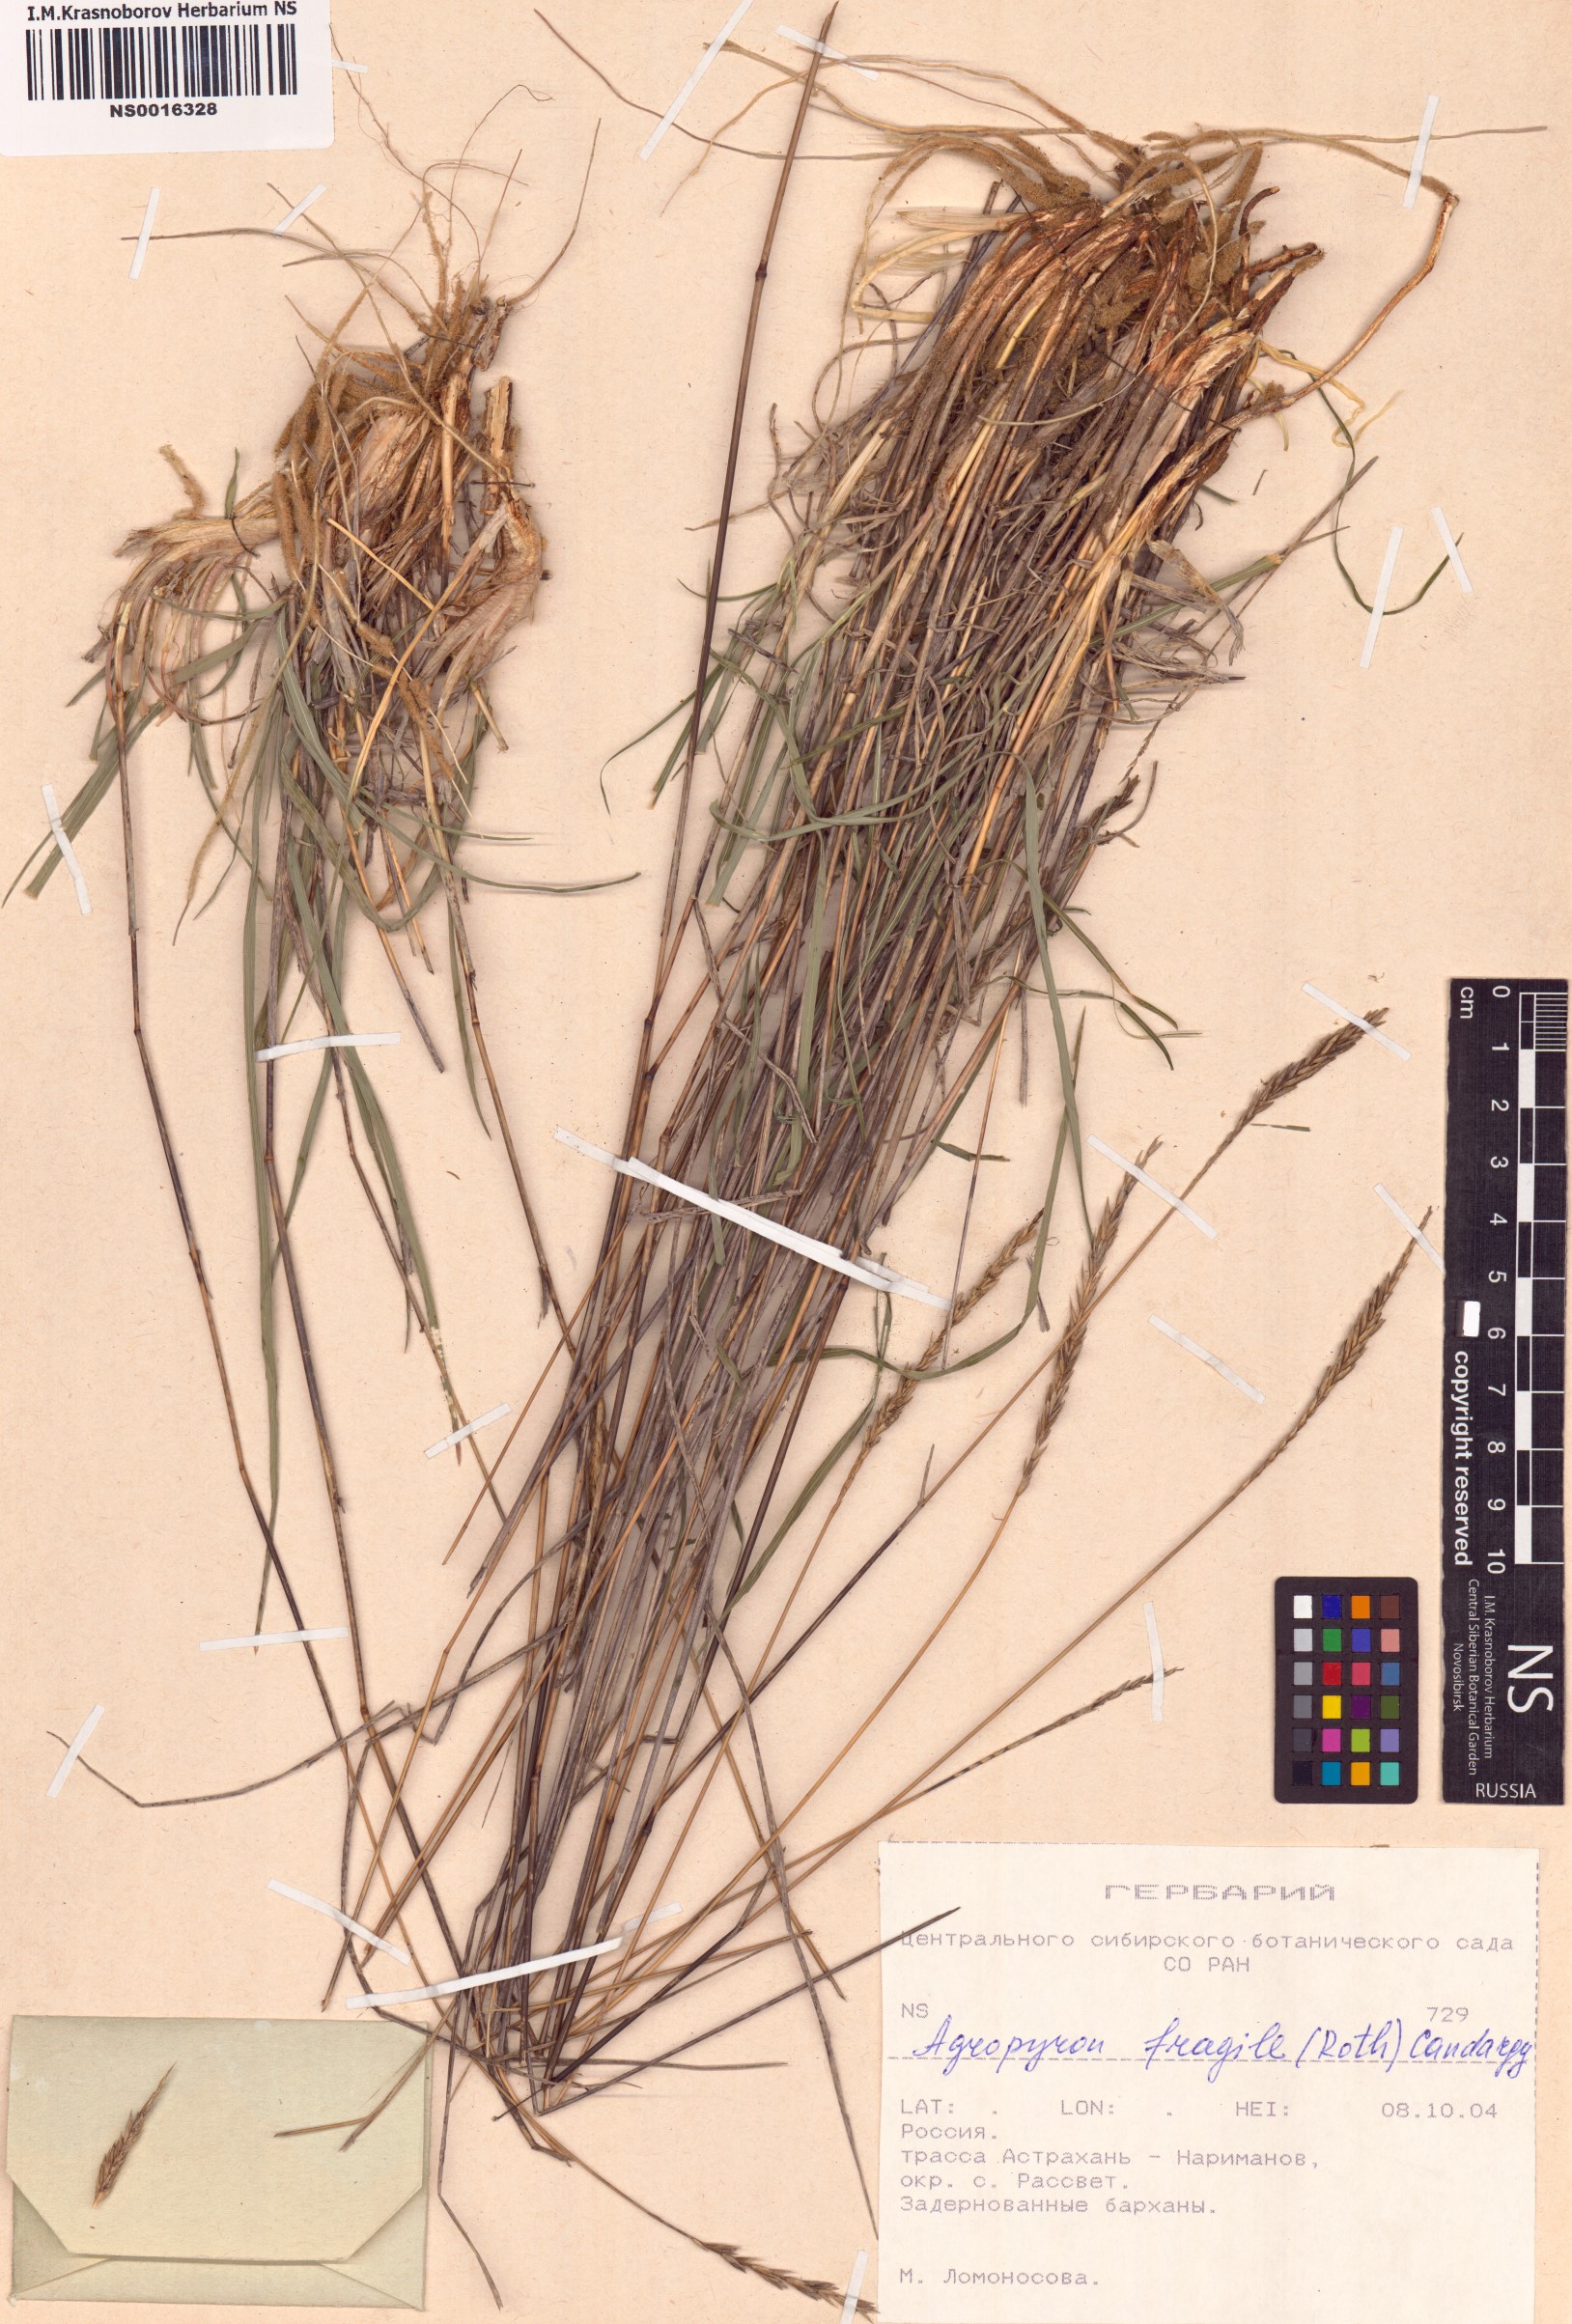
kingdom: Plantae
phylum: Tracheophyta
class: Liliopsida
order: Poales
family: Poaceae
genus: Agropyron
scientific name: Agropyron fragile
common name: Siberian wheatgrass
